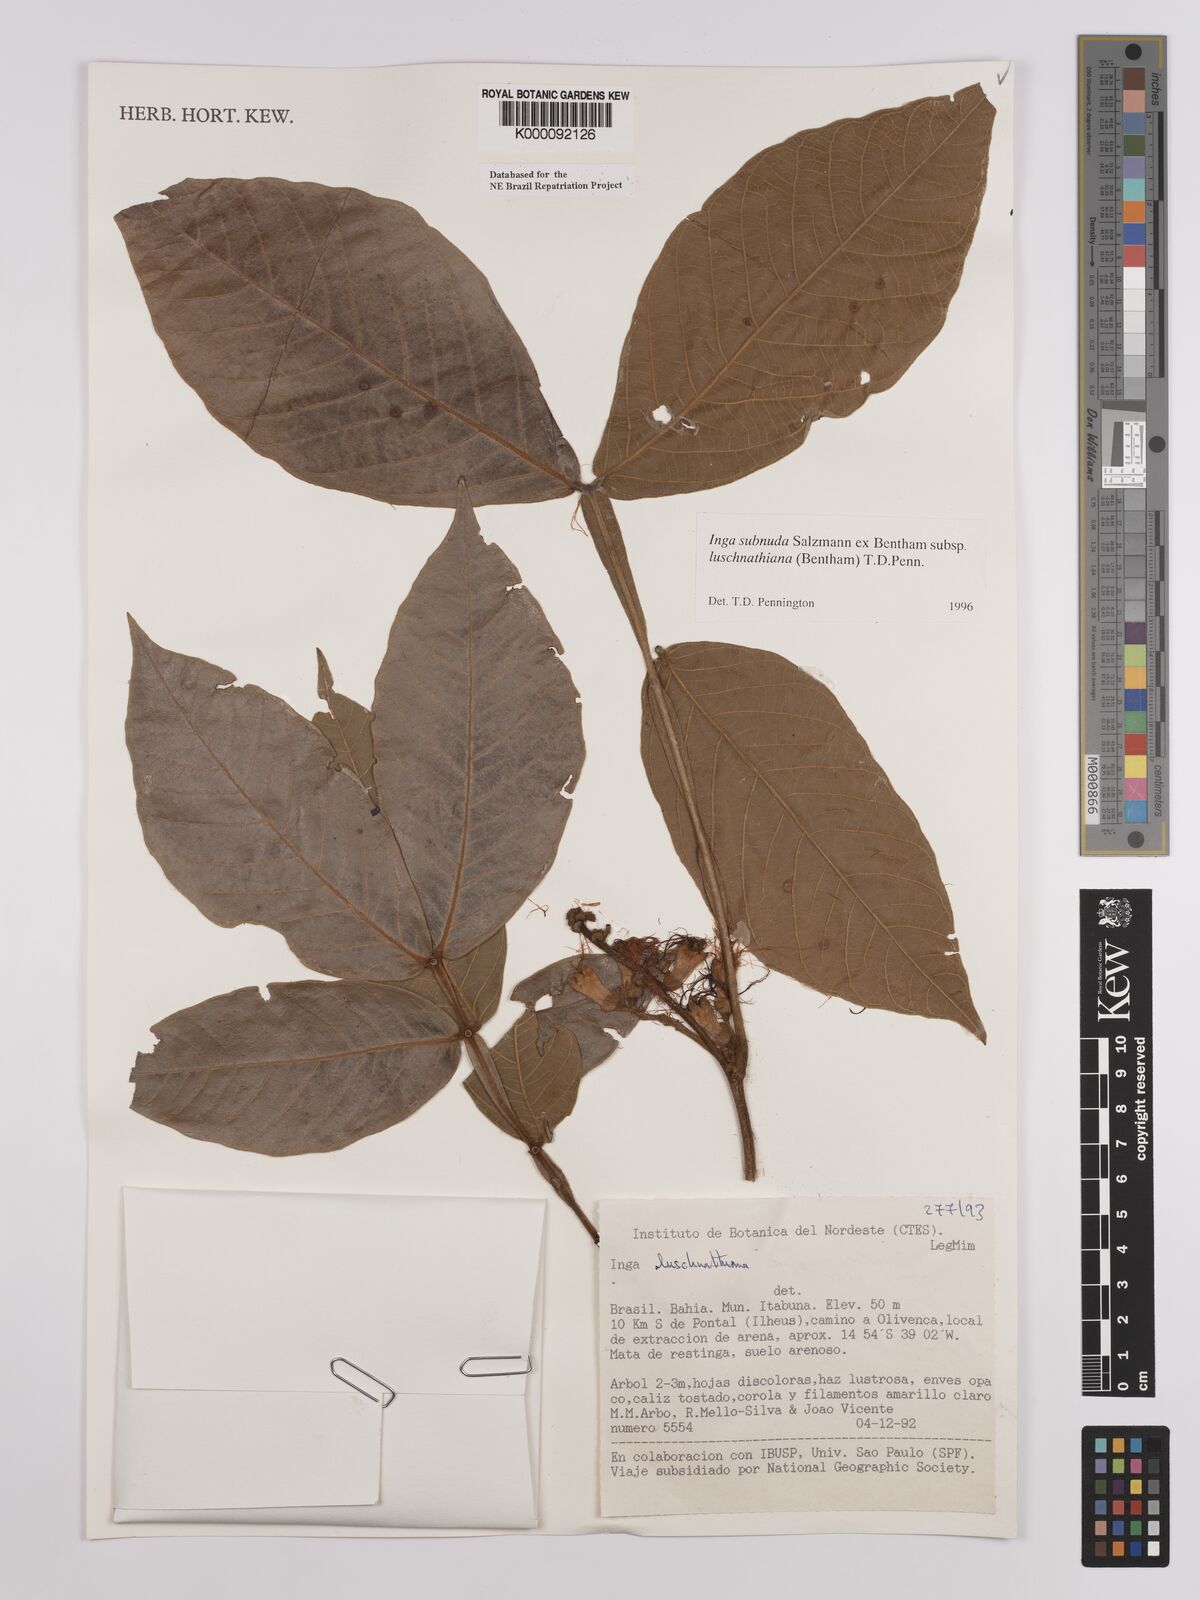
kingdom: Plantae
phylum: Tracheophyta
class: Magnoliopsida
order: Fabales
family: Fabaceae
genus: Inga
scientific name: Inga subnuda
